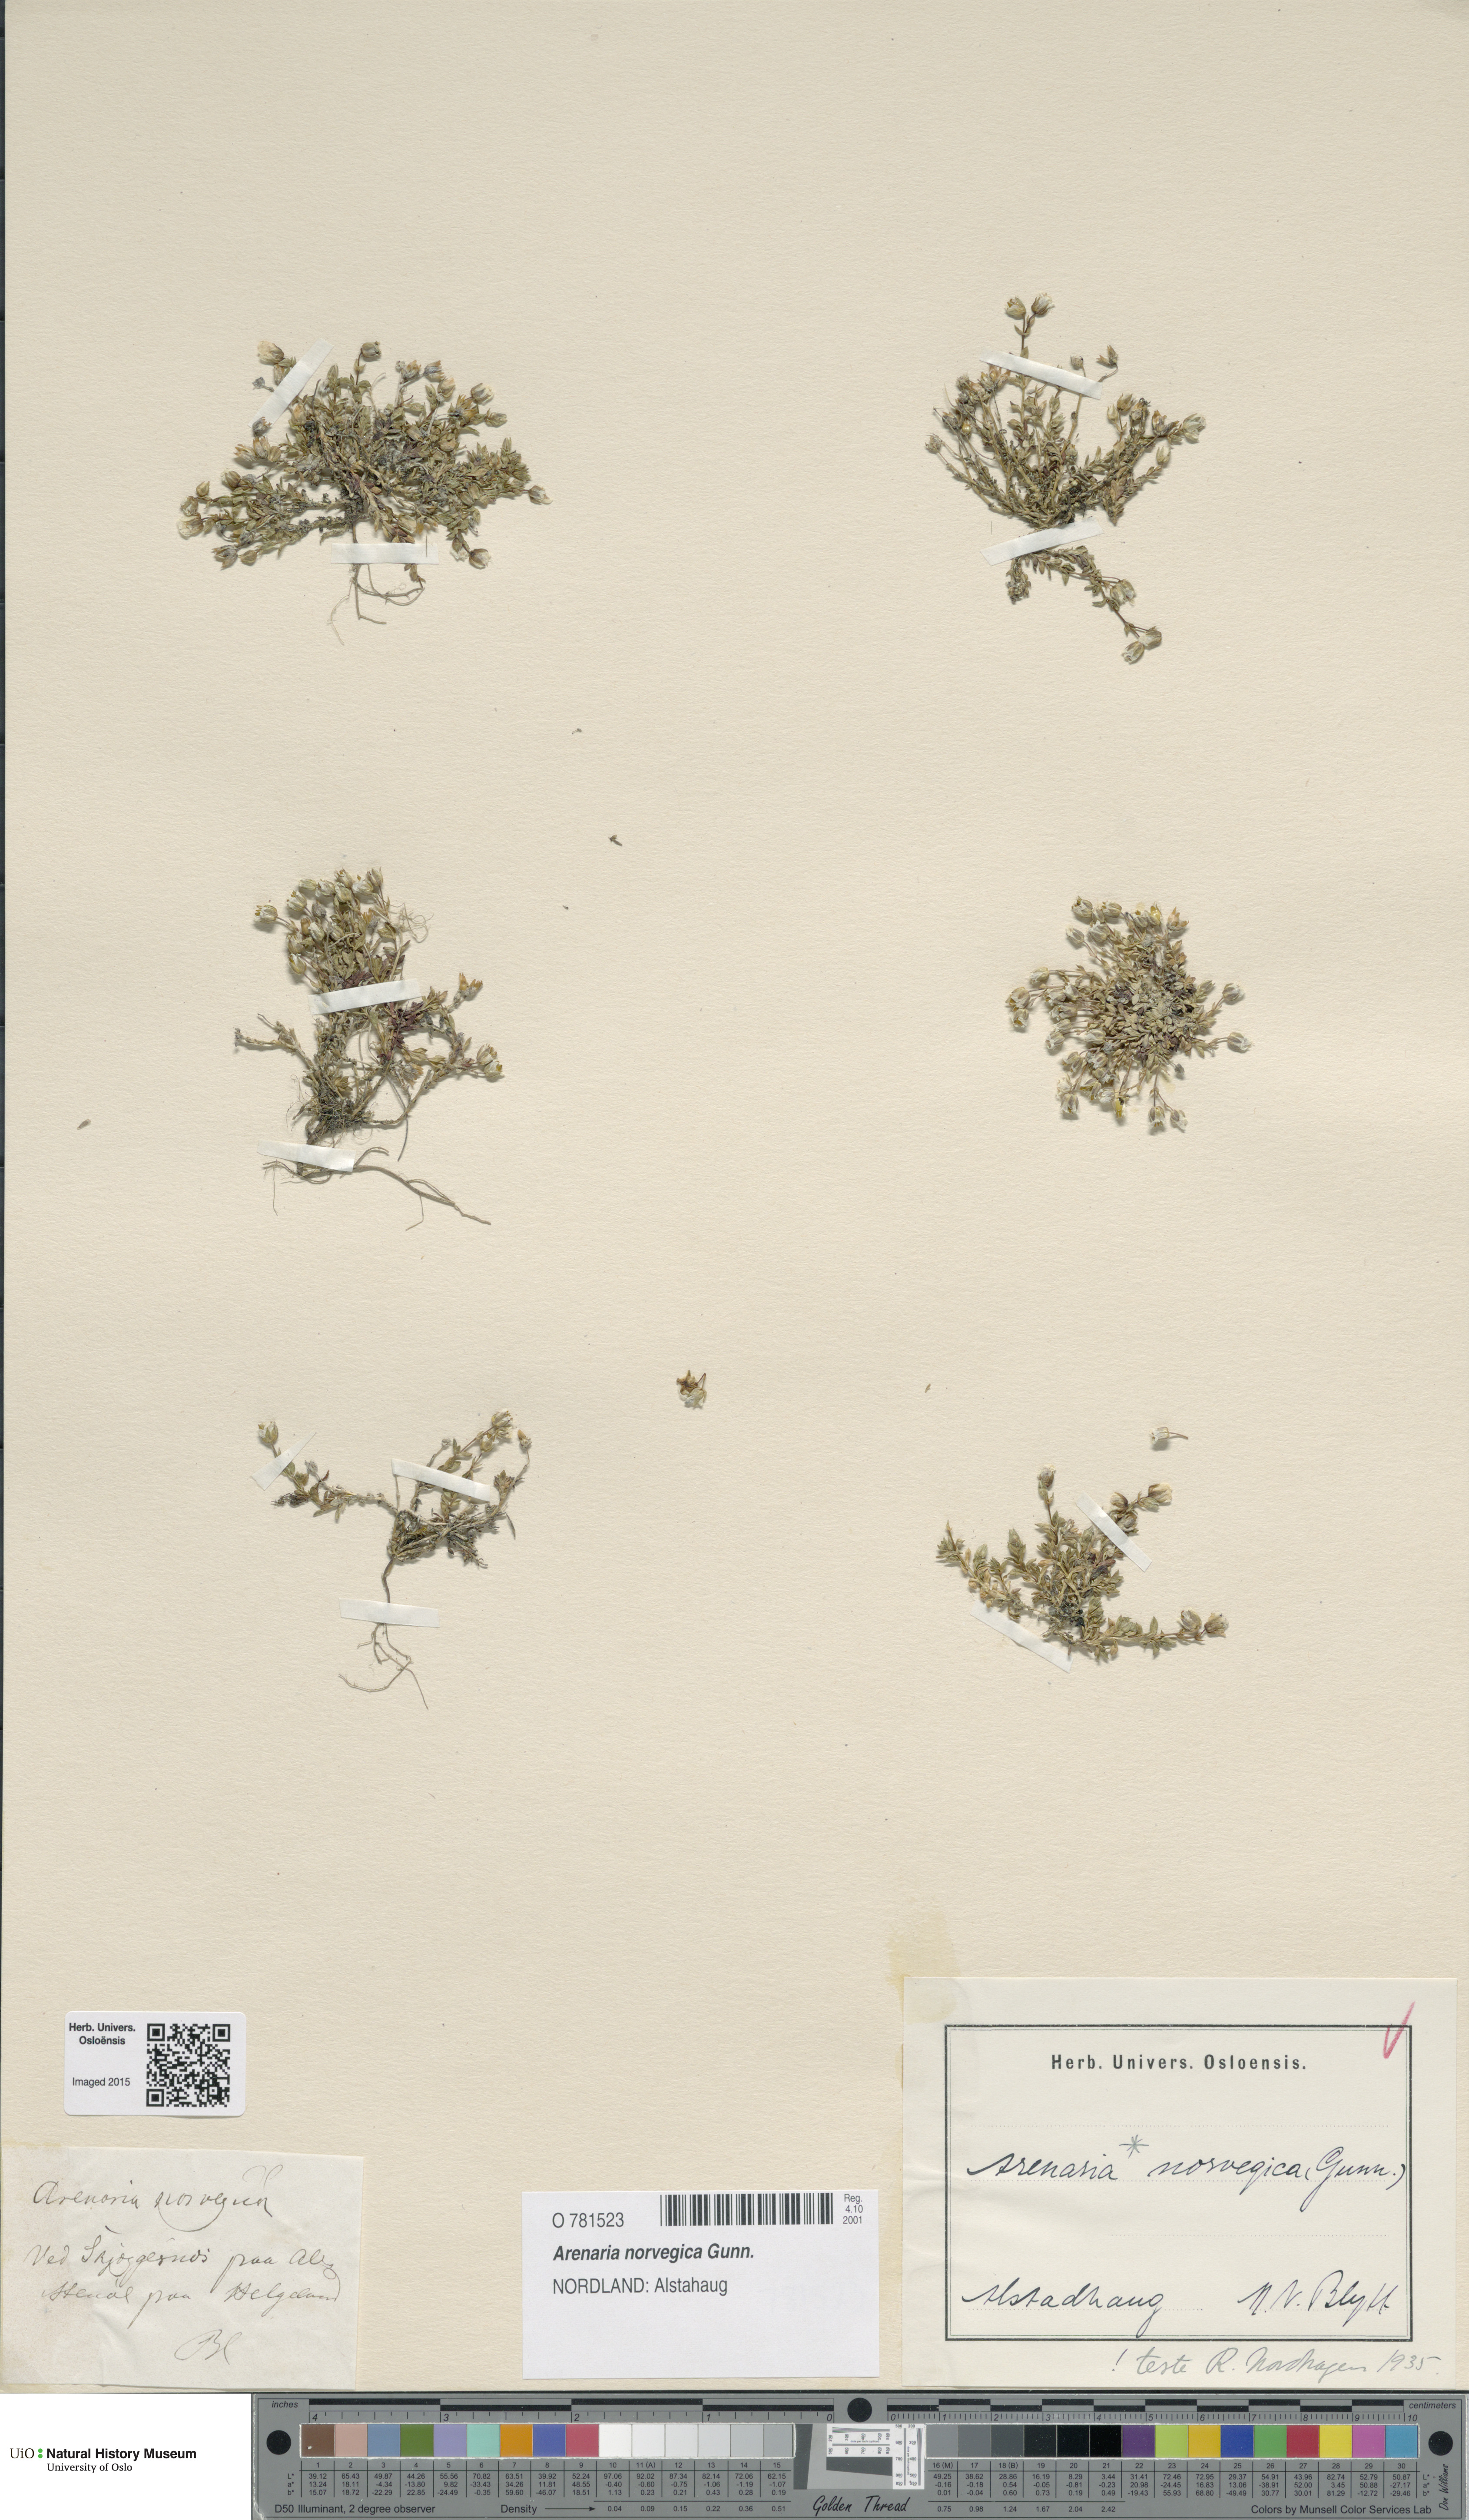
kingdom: Plantae
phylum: Tracheophyta
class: Magnoliopsida
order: Caryophyllales
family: Caryophyllaceae
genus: Arenaria
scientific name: Arenaria norvegica
